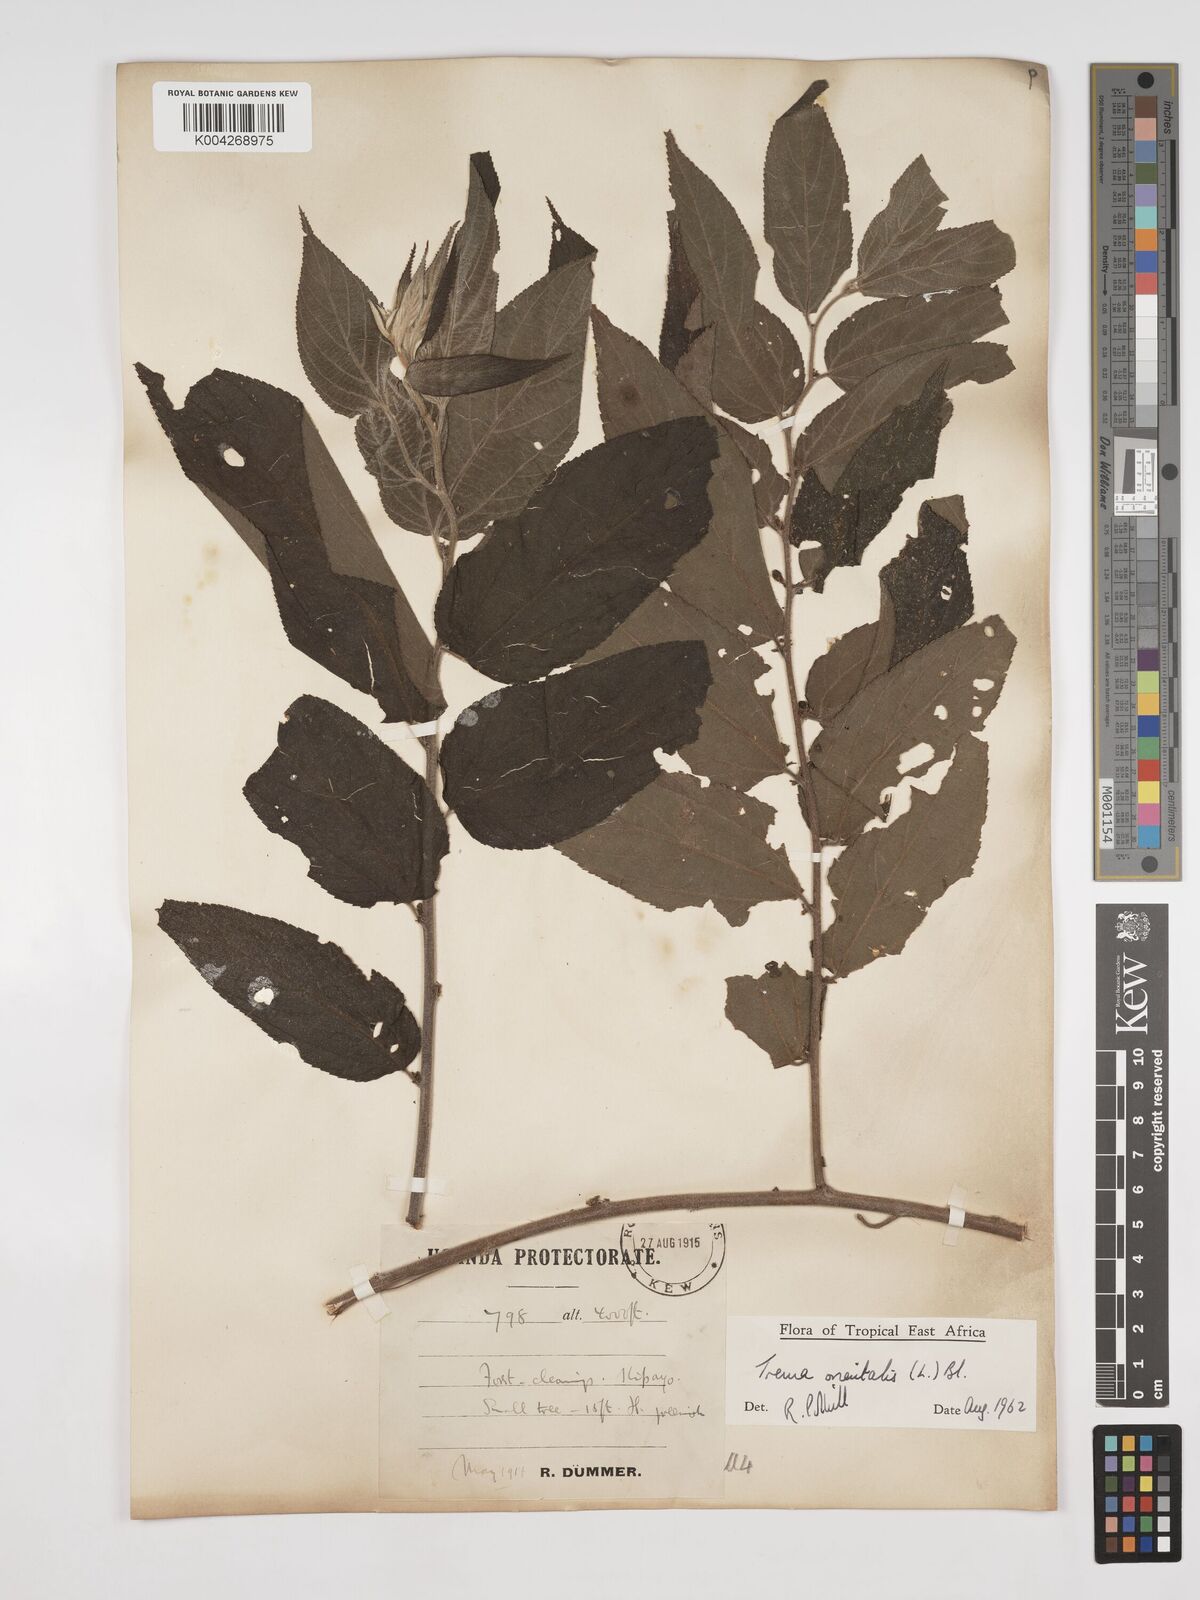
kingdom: Plantae
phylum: Tracheophyta
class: Magnoliopsida
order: Rosales
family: Cannabaceae
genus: Trema
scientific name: Trema orientale
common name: Indian charcoal tree
